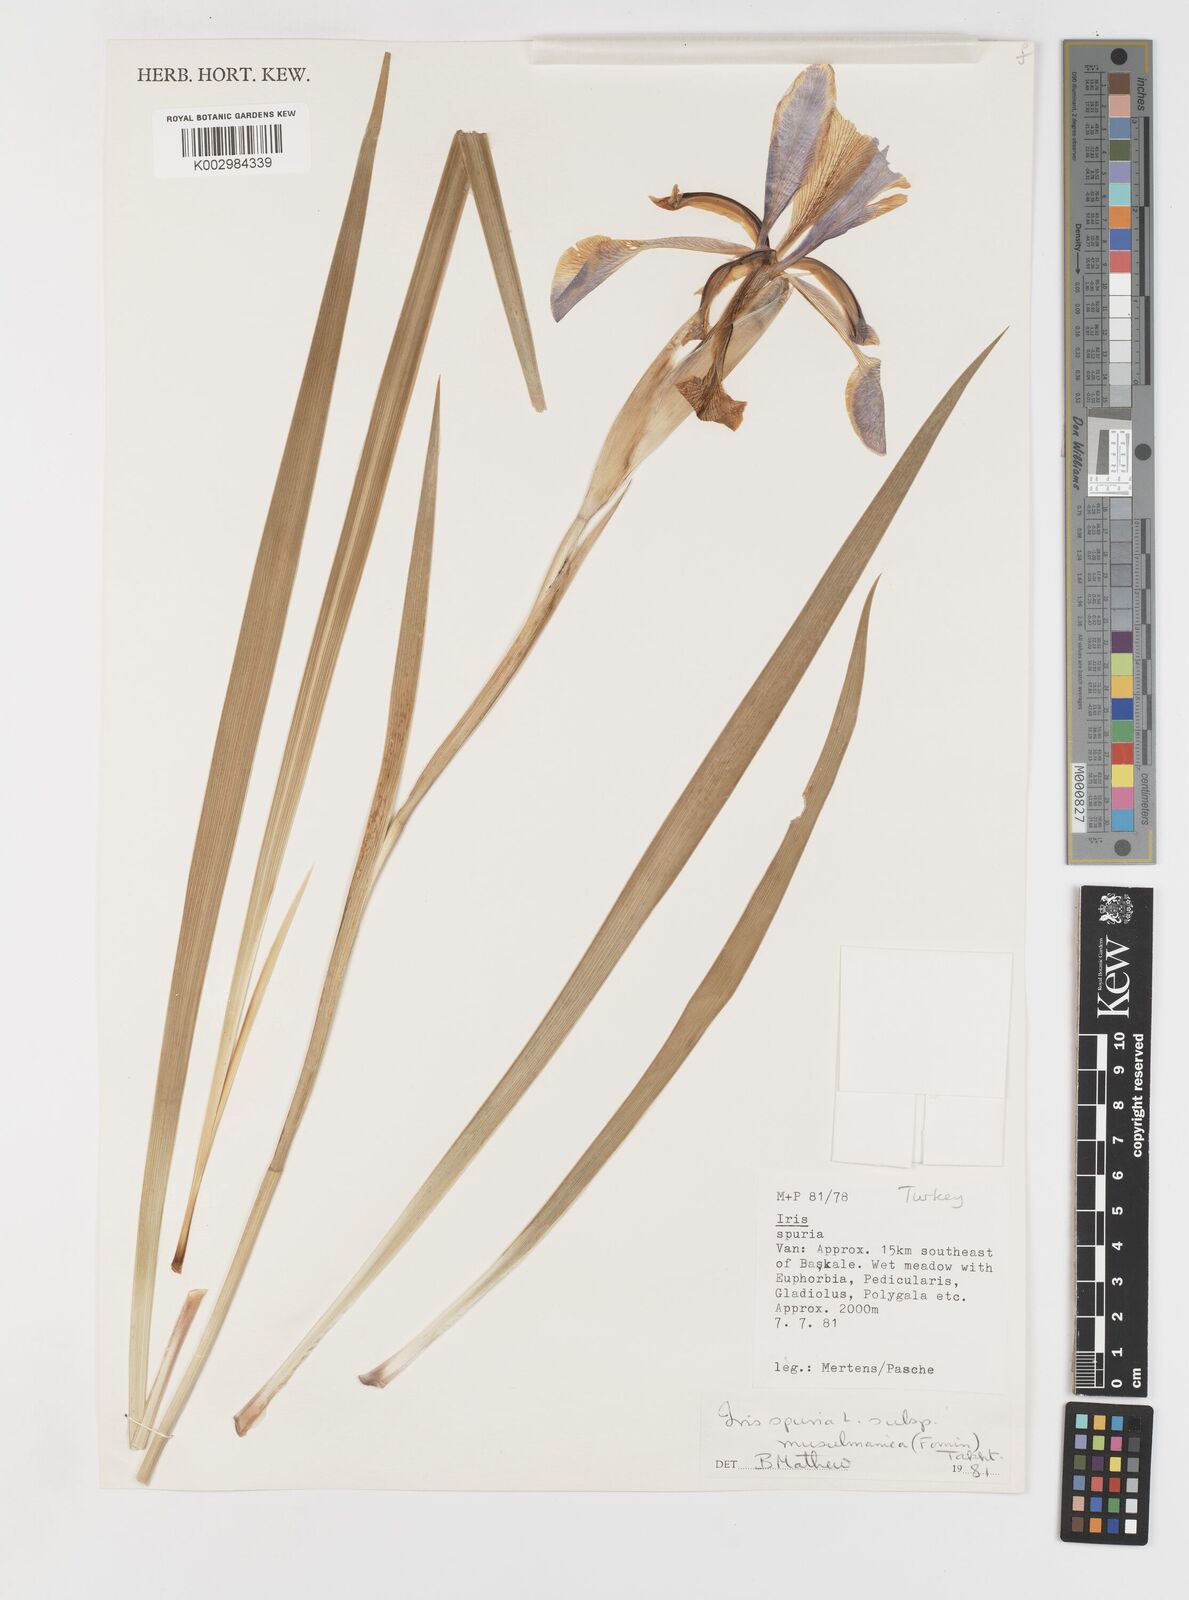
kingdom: Plantae
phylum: Tracheophyta
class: Liliopsida
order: Asparagales
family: Iridaceae
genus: Iris
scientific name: Iris spuria
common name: Blue iris
